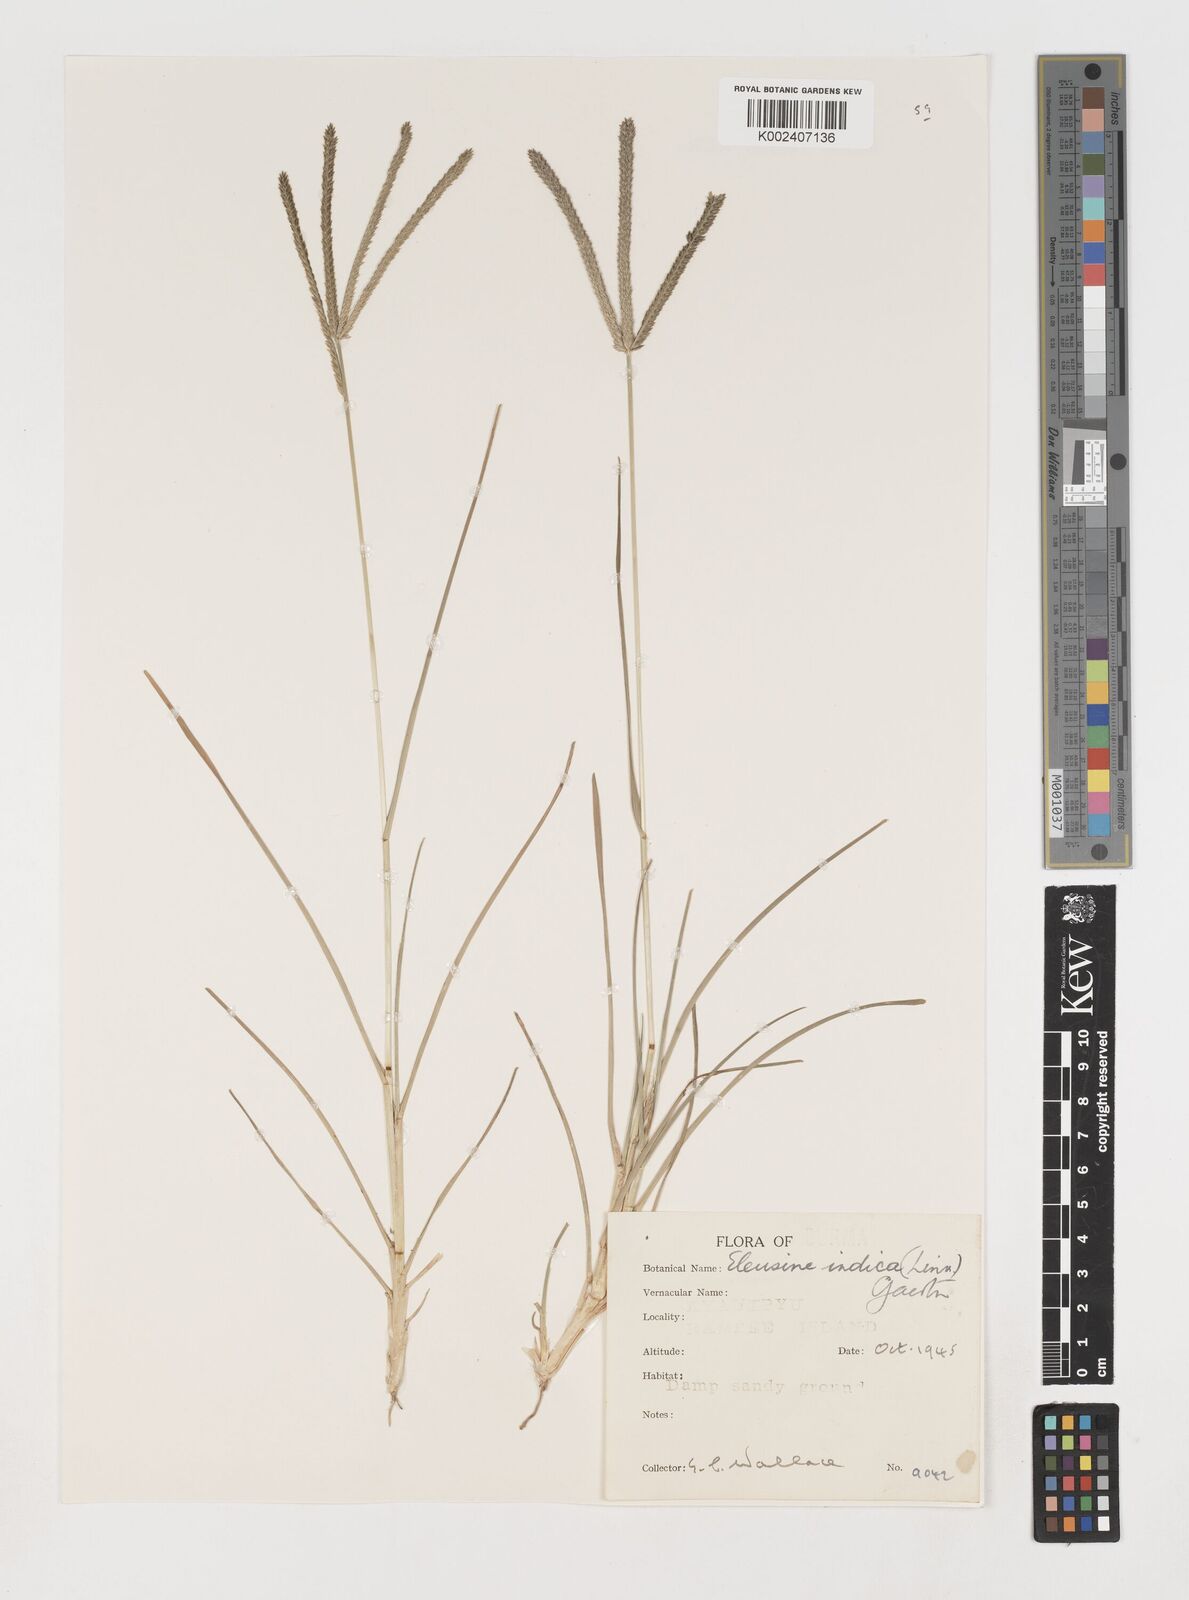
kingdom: Plantae
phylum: Tracheophyta
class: Liliopsida
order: Poales
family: Poaceae
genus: Eleusine
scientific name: Eleusine indica
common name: Yard-grass
